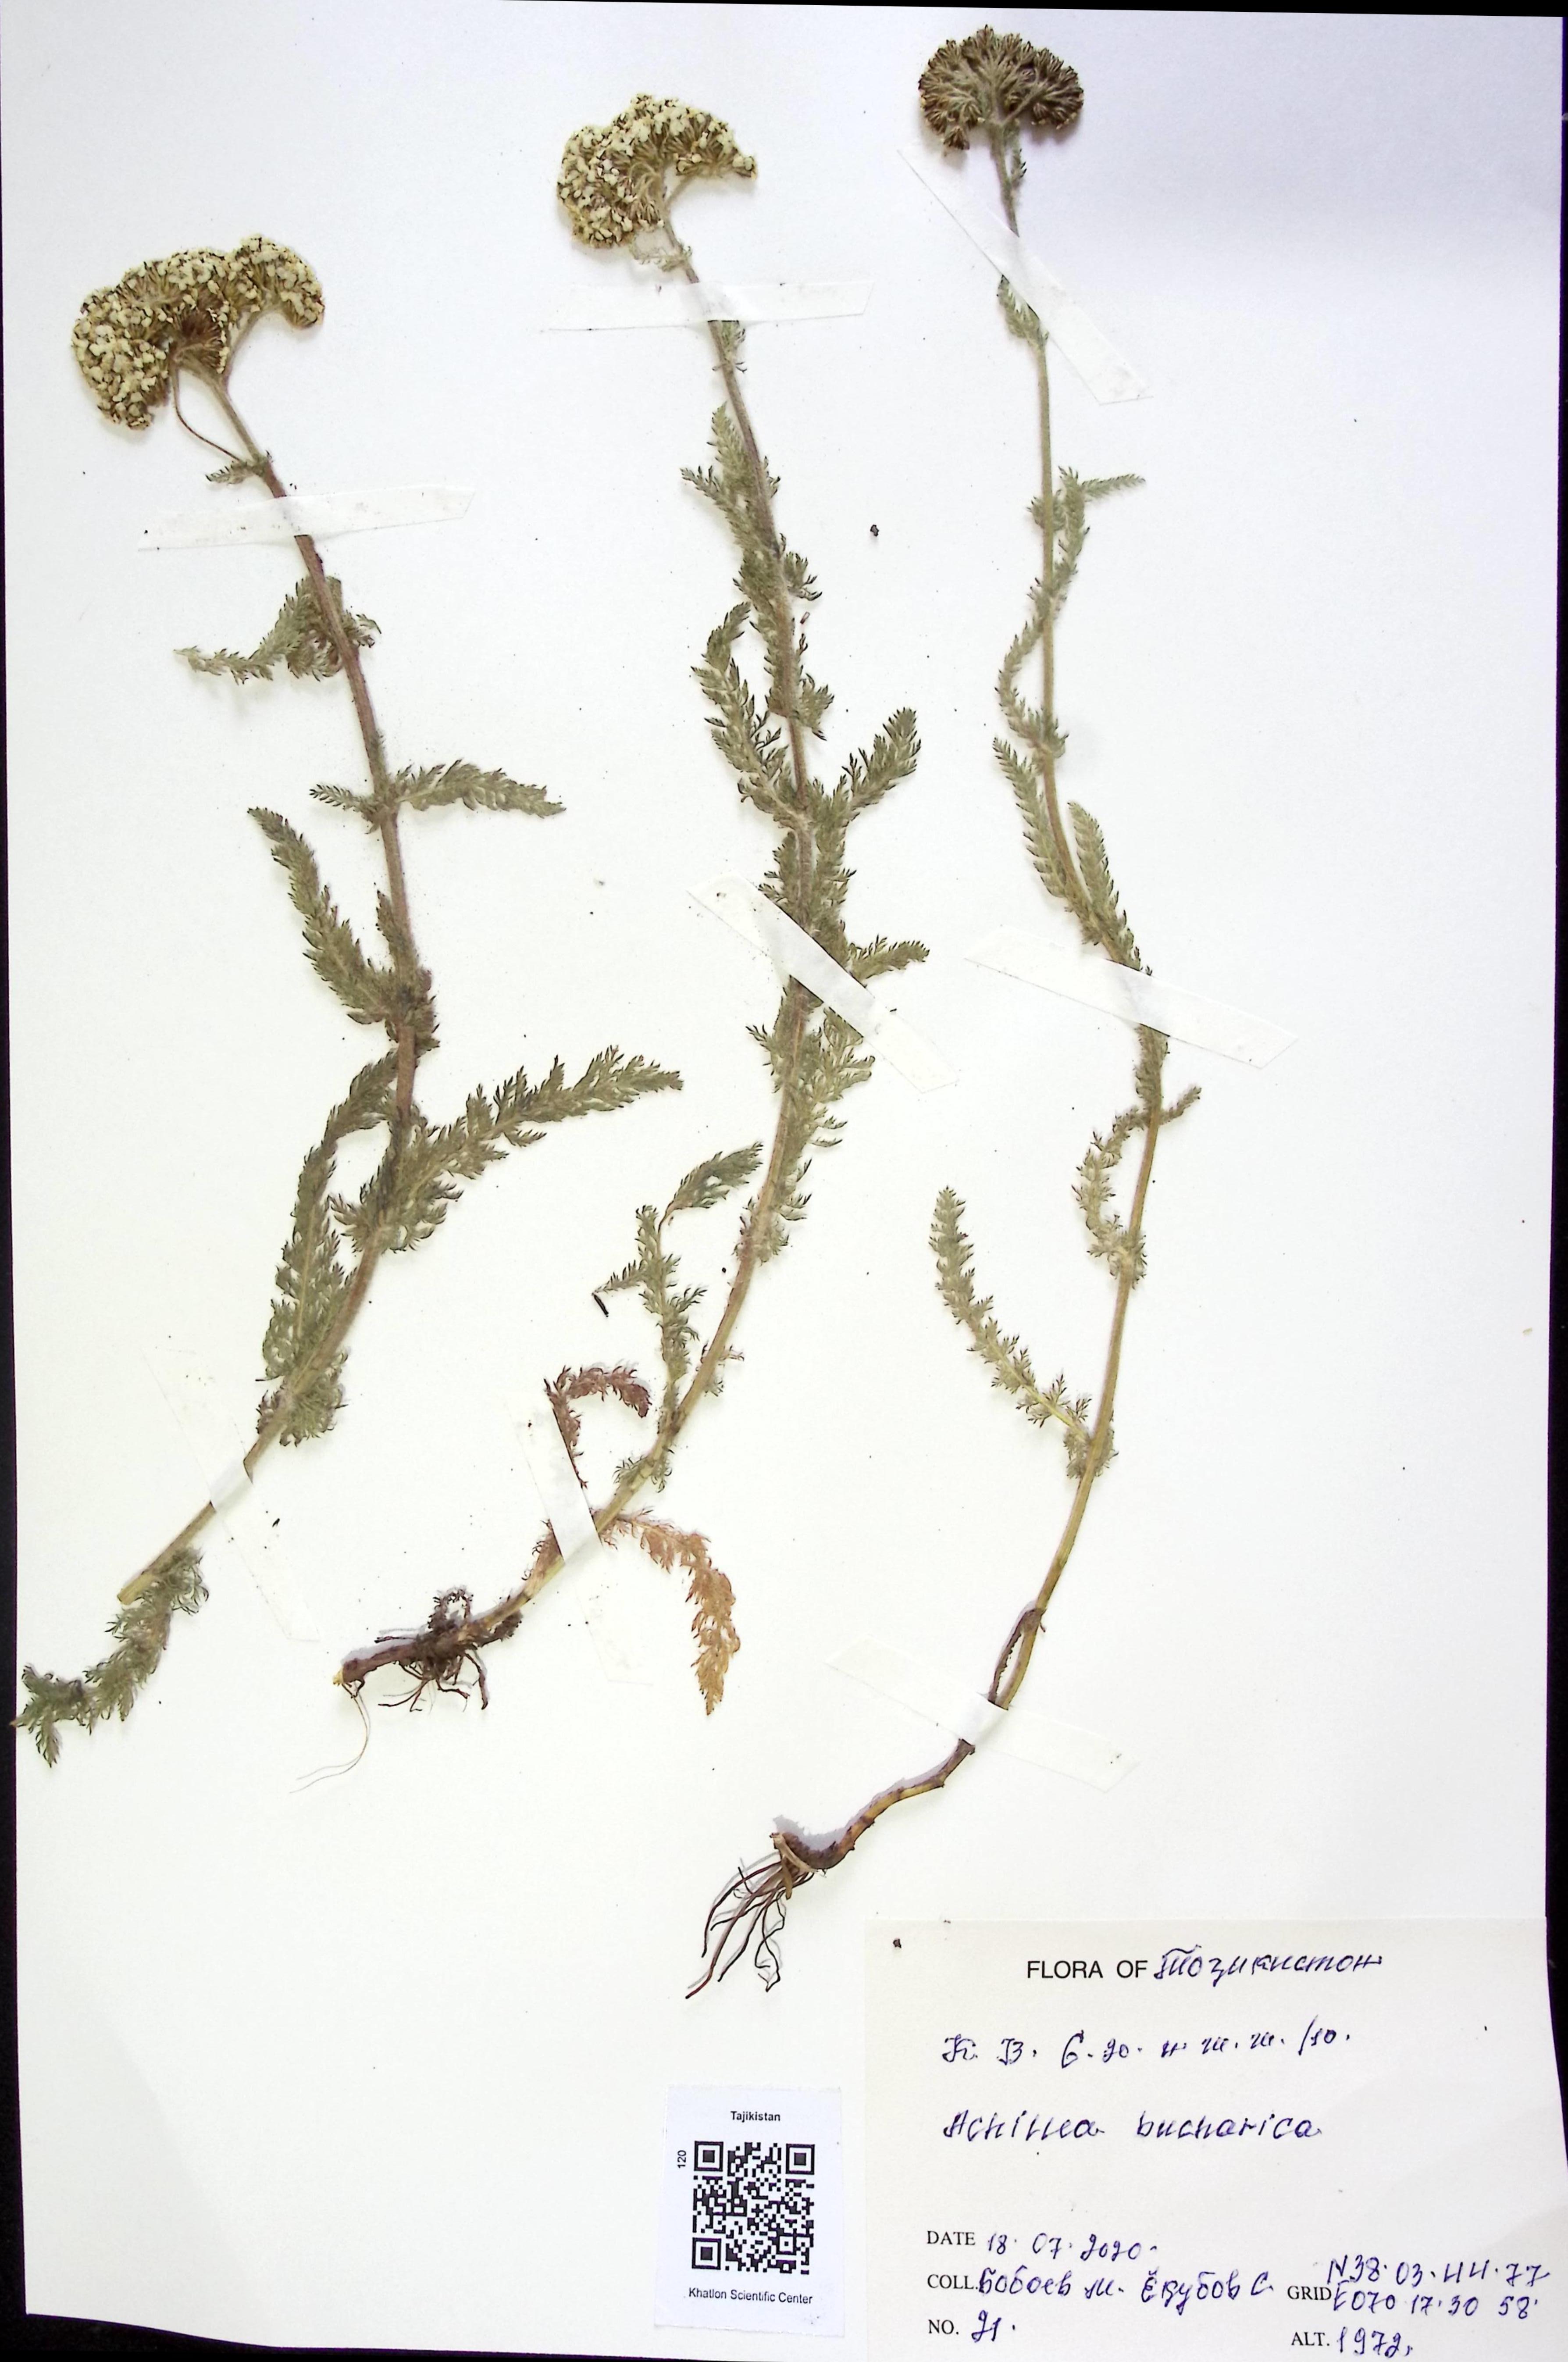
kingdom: Plantae
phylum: Tracheophyta
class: Magnoliopsida
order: Asterales
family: Asteraceae
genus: Achillea
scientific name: Achillea bucharica
